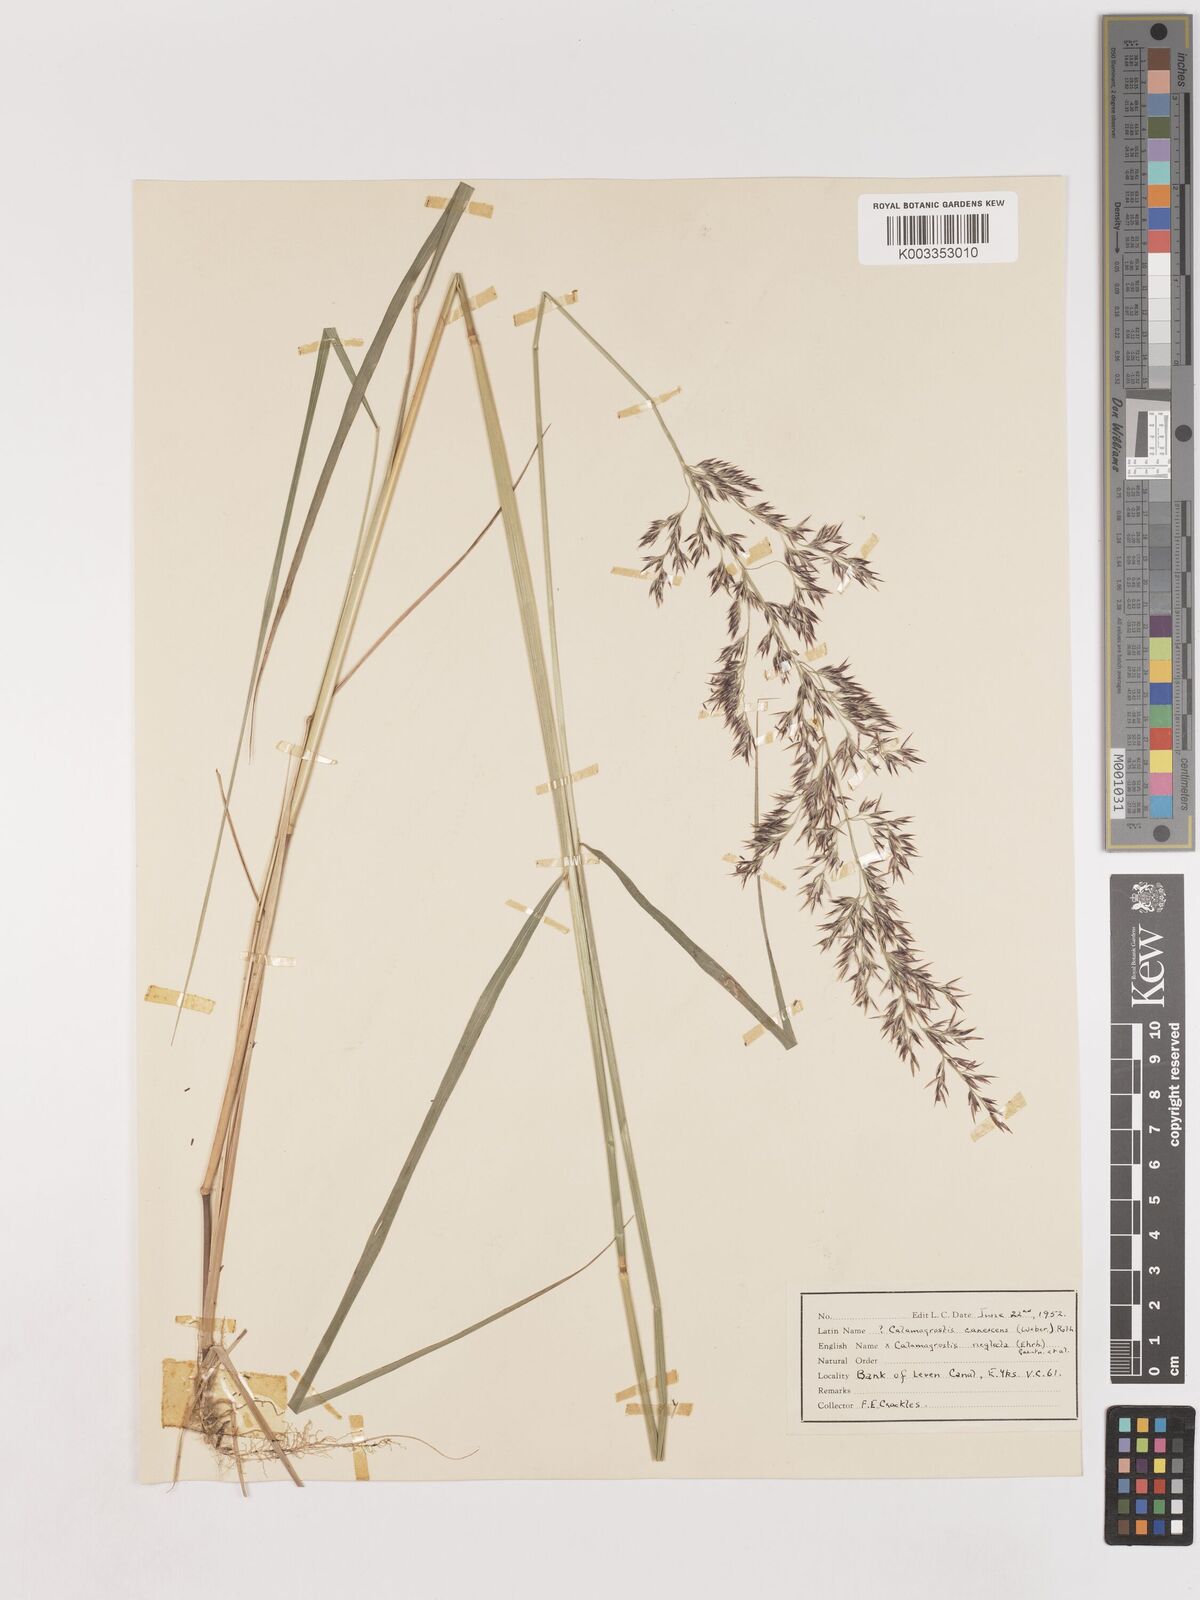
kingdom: Plantae
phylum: Tracheophyta
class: Liliopsida
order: Poales
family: Poaceae
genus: Calamagrostis
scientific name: Calamagrostis canescens
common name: Purple small-reed
